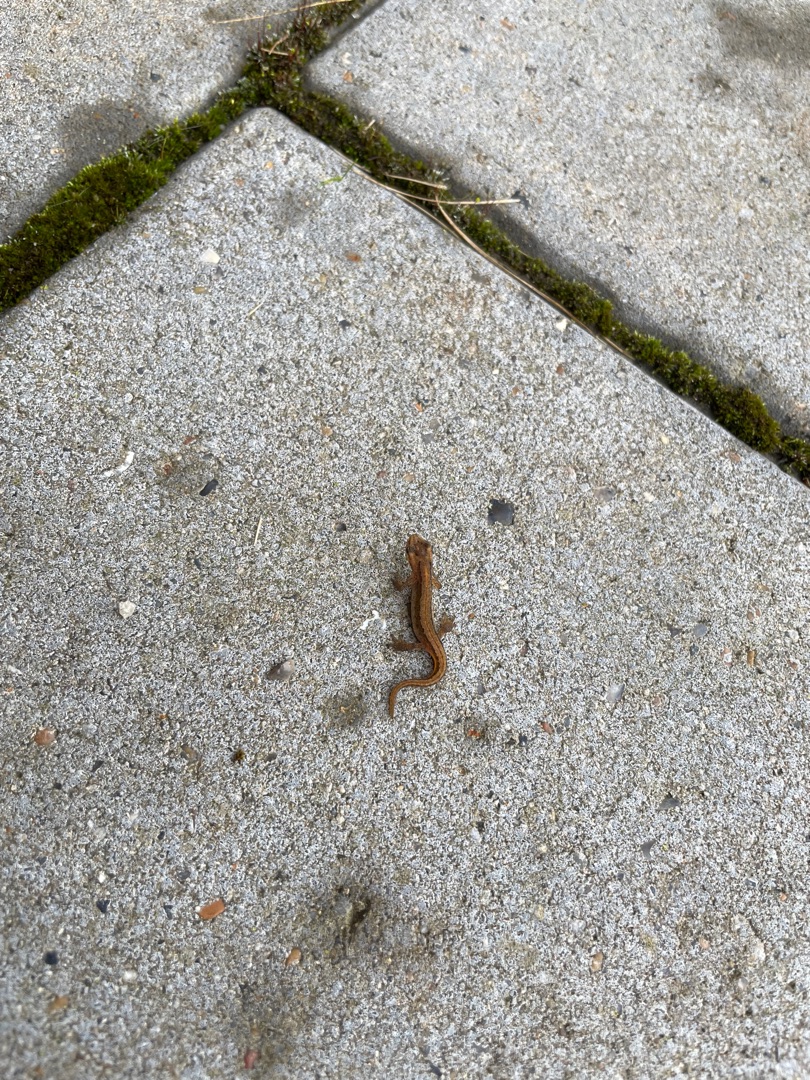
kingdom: Animalia
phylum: Chordata
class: Amphibia
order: Caudata
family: Salamandridae
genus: Lissotriton
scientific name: Lissotriton vulgaris
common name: Lille vandsalamander
